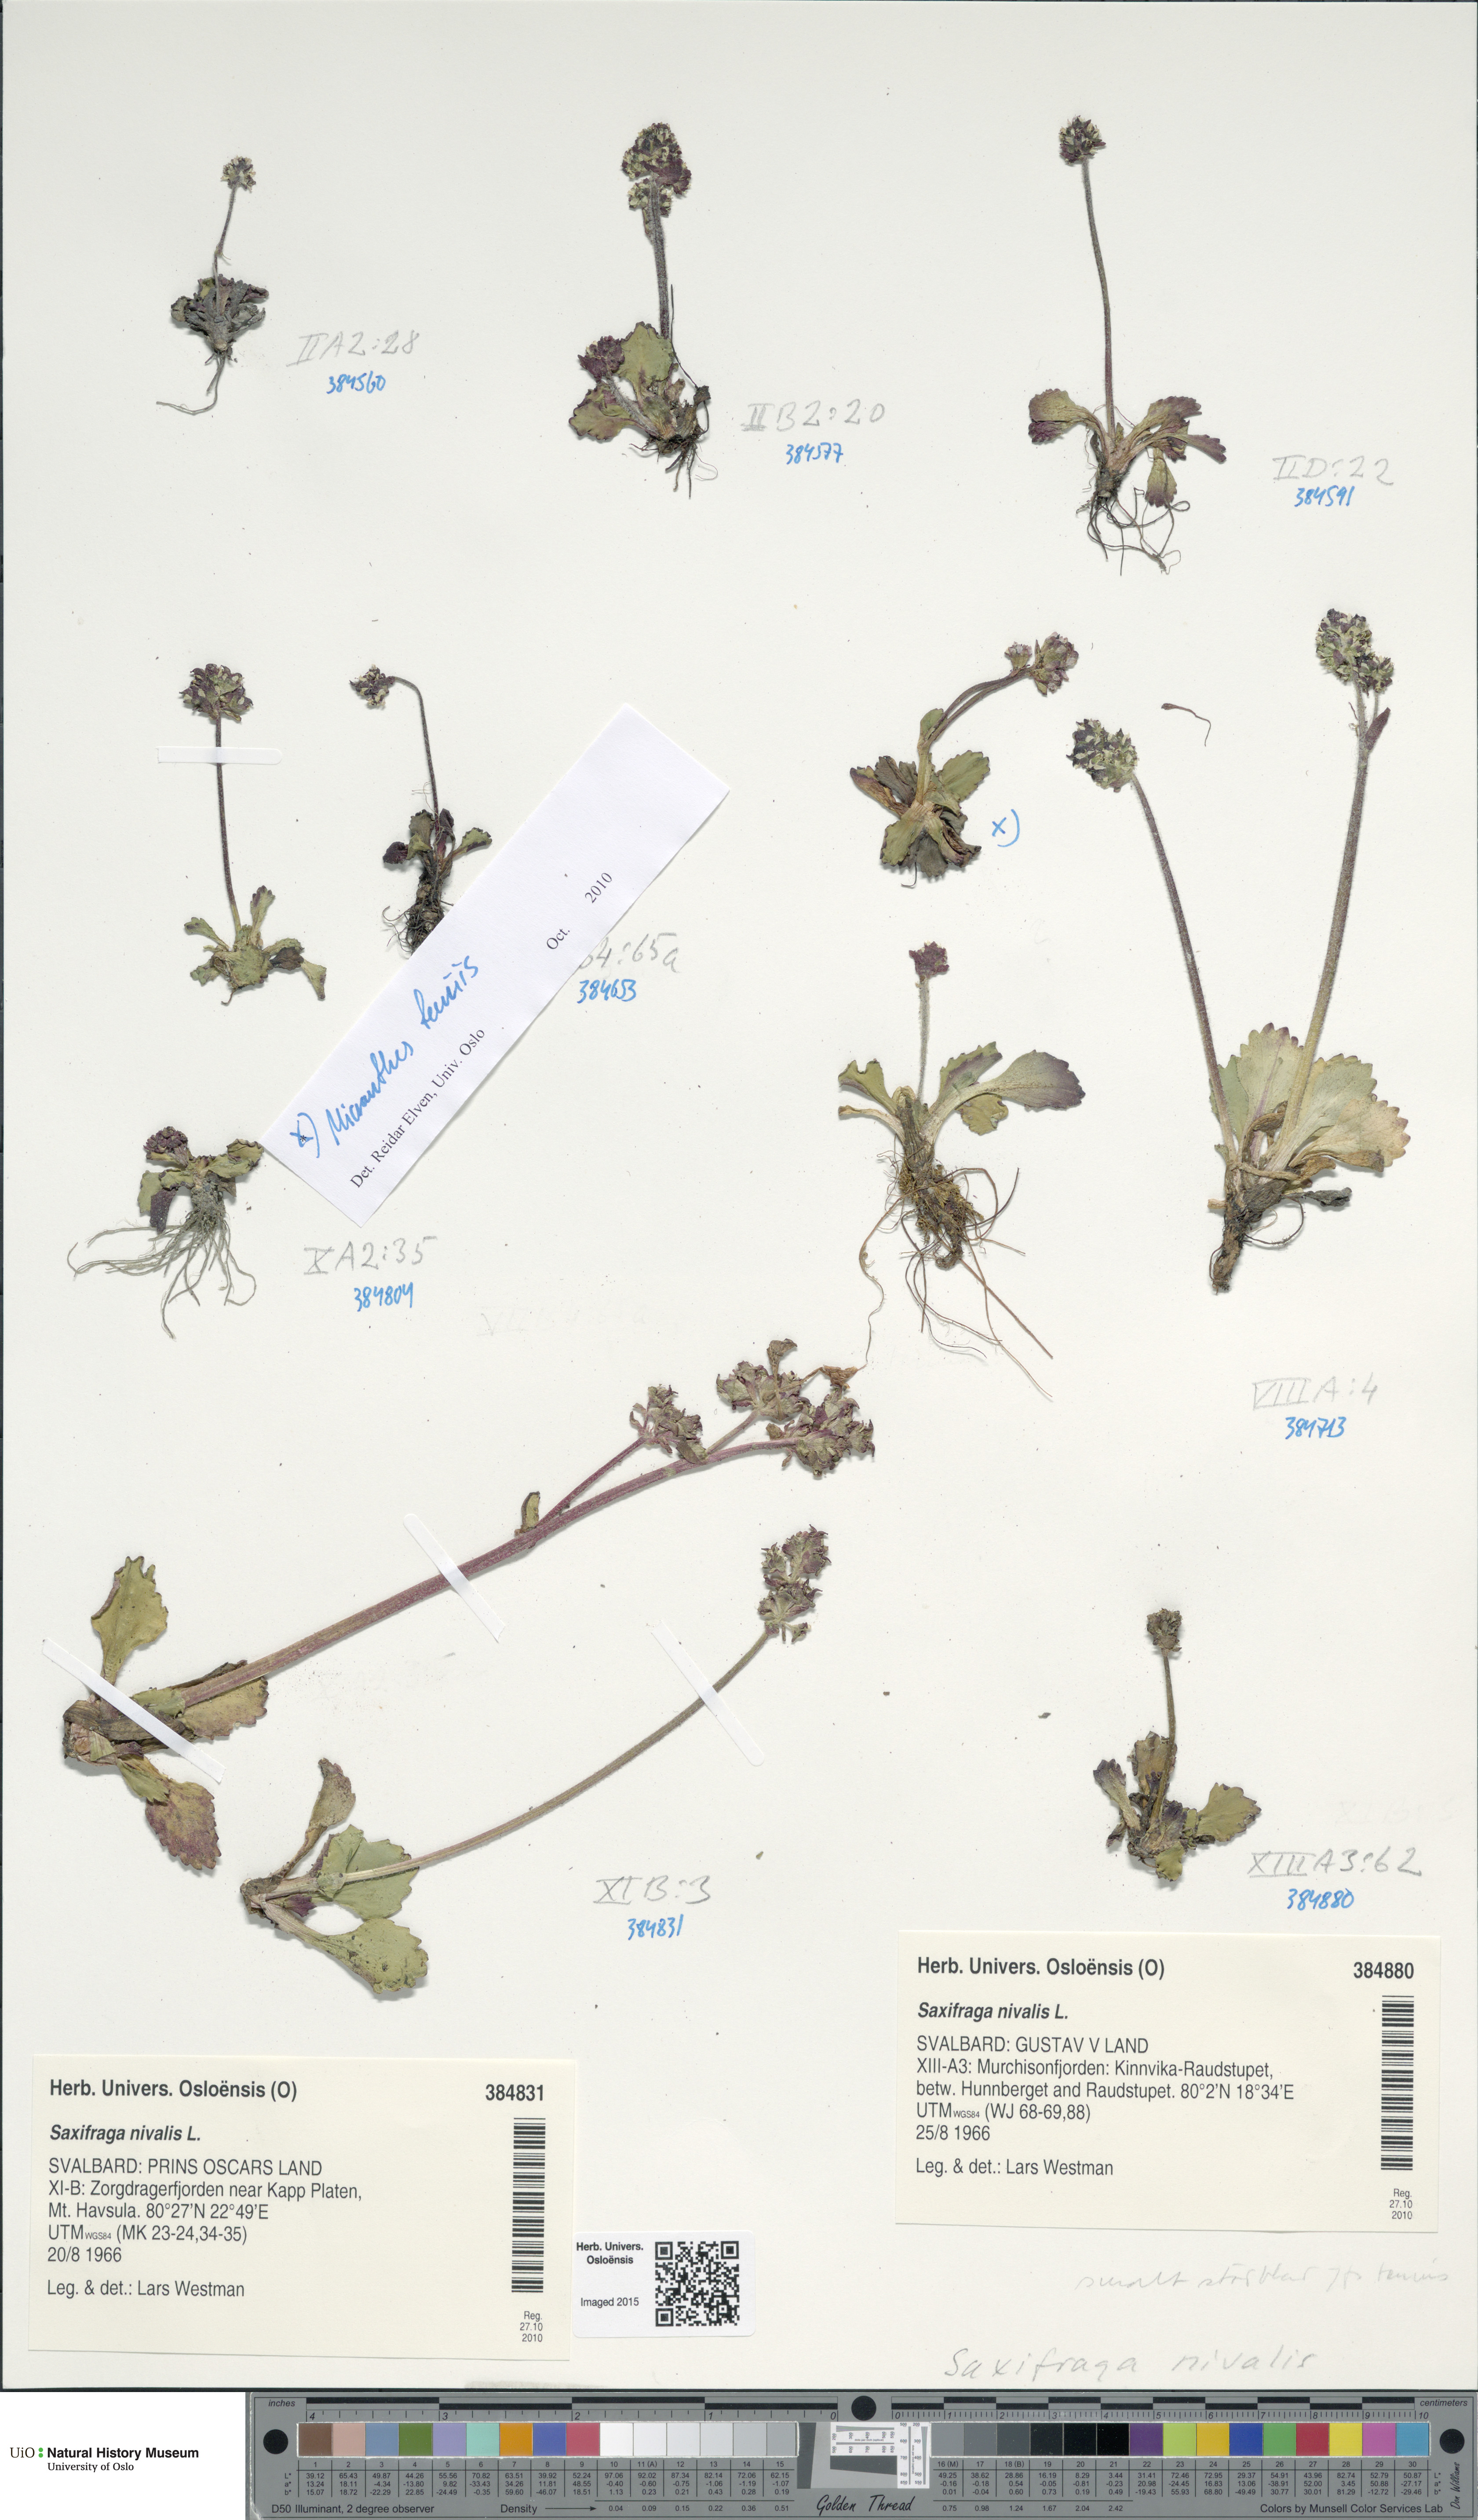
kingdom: Plantae
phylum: Tracheophyta
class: Magnoliopsida
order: Saxifragales
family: Saxifragaceae
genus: Micranthes
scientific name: Micranthes nivalis
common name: Alpine saxifrage
